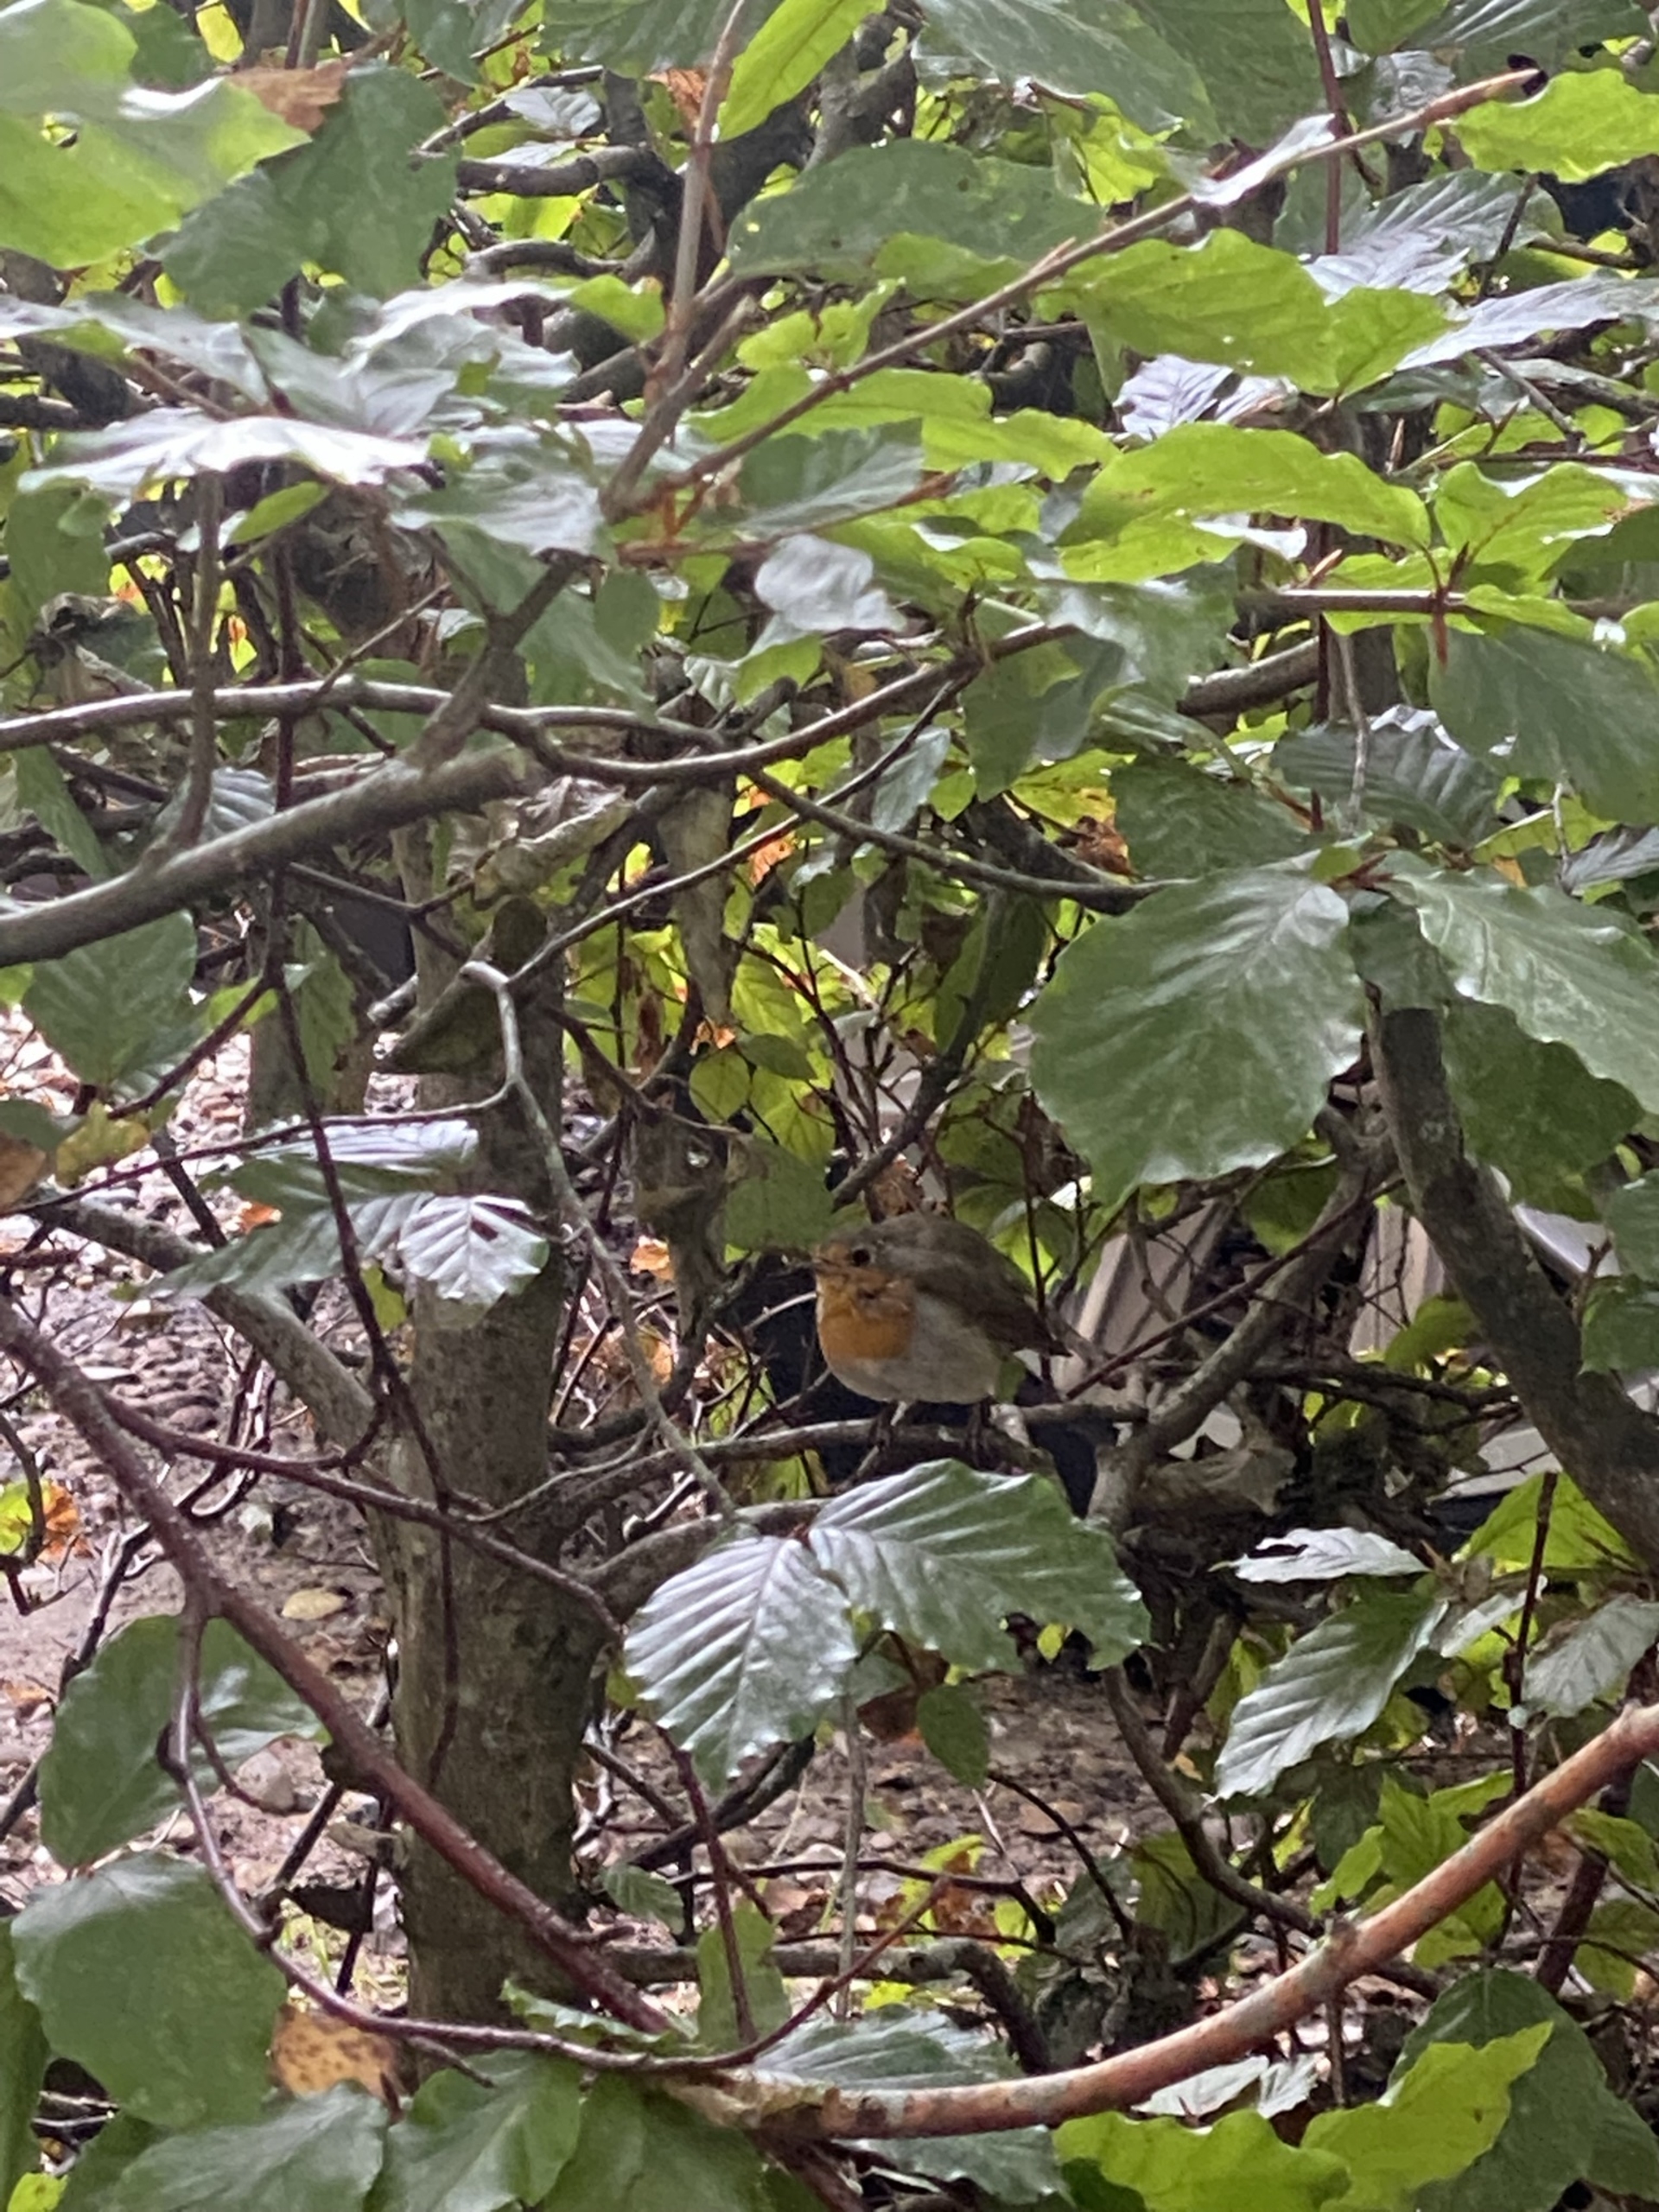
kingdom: Animalia
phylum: Chordata
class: Aves
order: Passeriformes
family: Muscicapidae
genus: Erithacus
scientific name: Erithacus rubecula
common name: Rødhals/rødkælk
